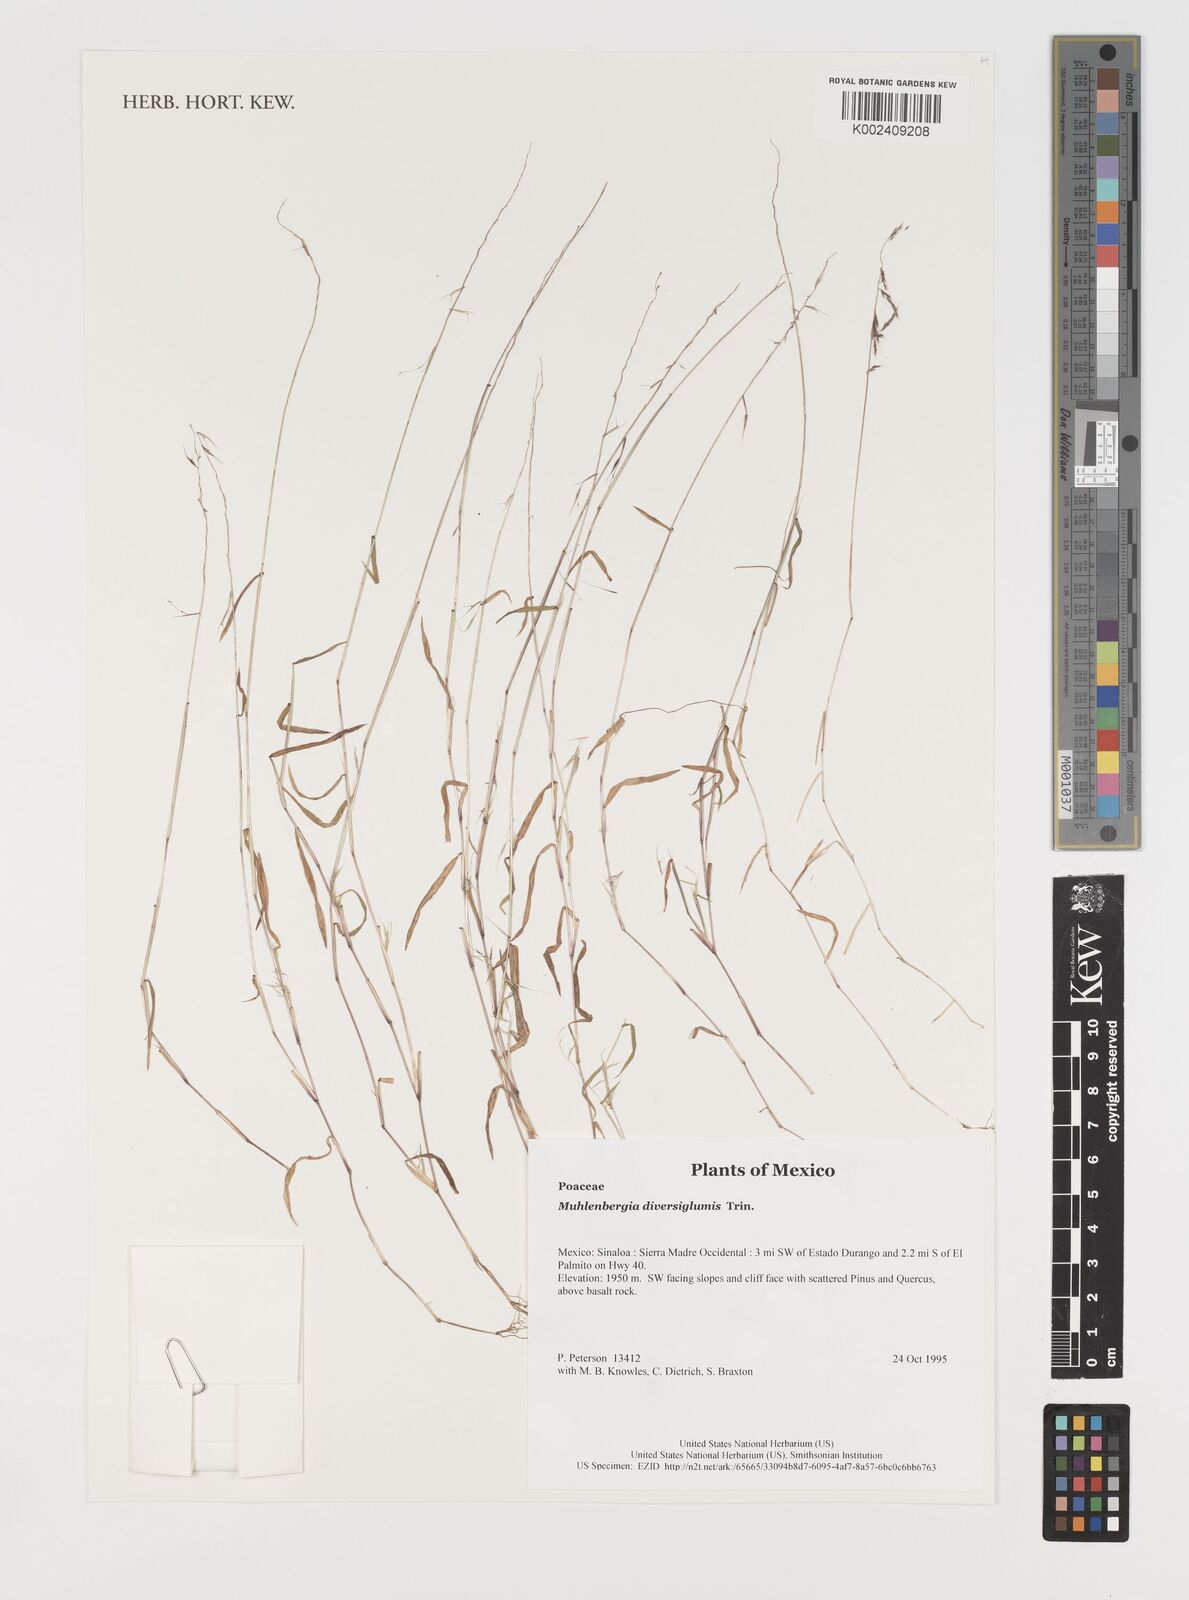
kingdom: Plantae
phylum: Tracheophyta
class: Liliopsida
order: Poales
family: Poaceae
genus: Muhlenbergia
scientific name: Muhlenbergia diversiglumis
